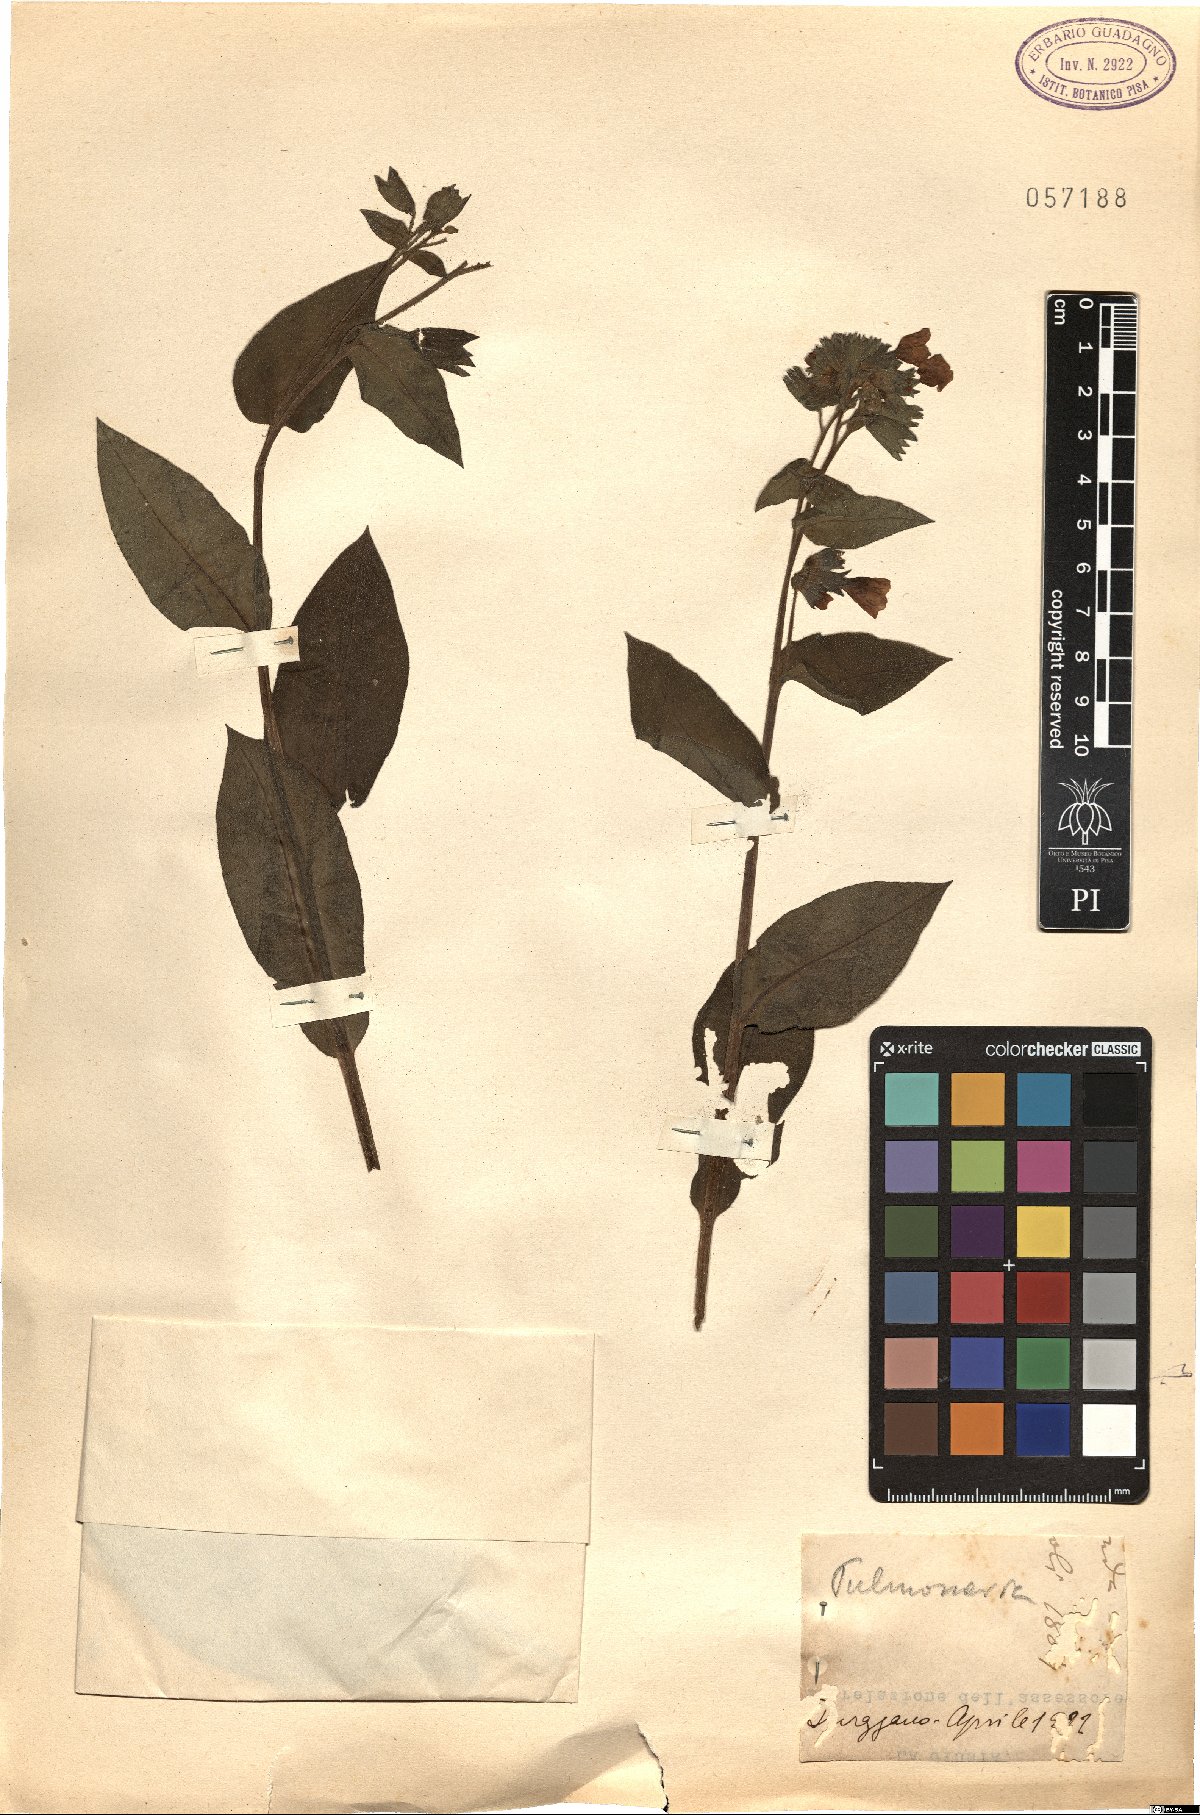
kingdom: Plantae
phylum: Tracheophyta
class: Magnoliopsida
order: Boraginales
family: Boraginaceae
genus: Pulmonaria
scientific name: Pulmonaria
